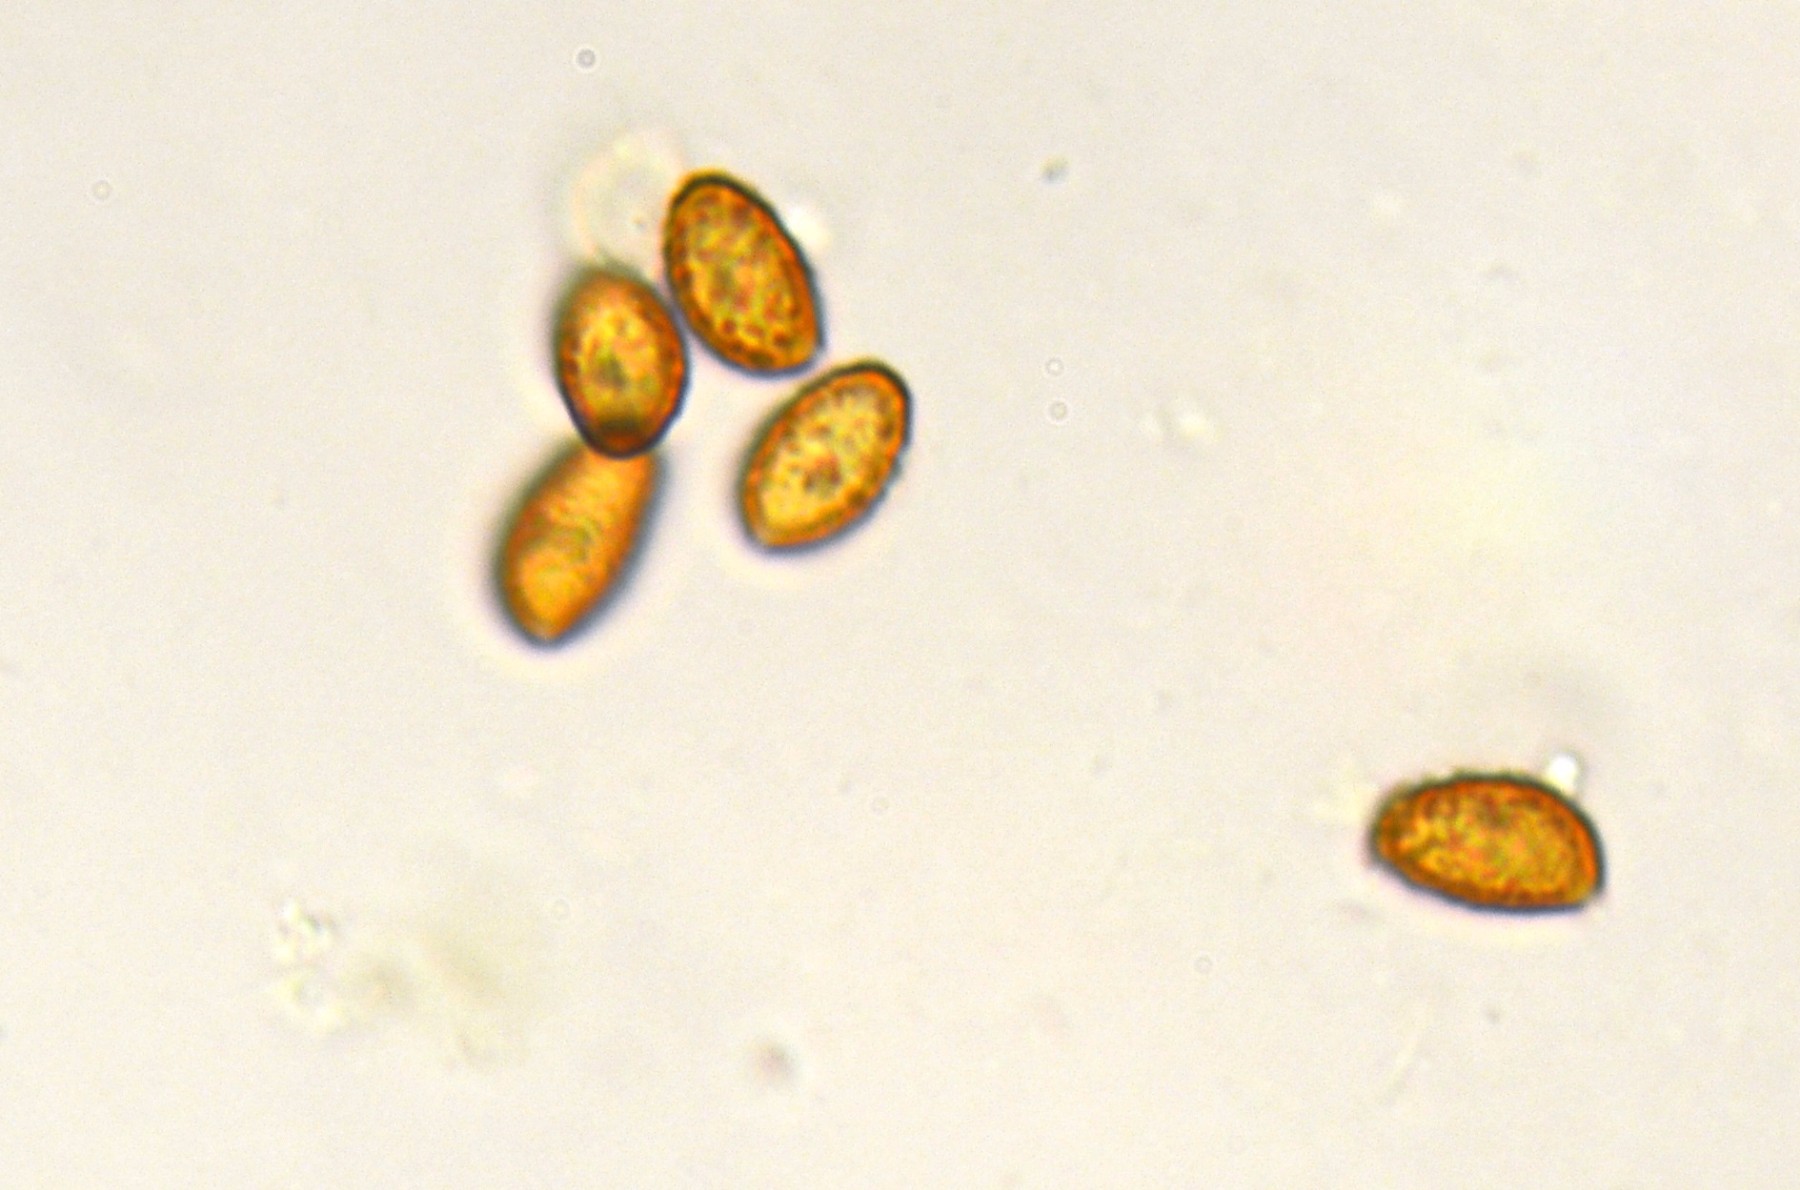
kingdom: Fungi
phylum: Basidiomycota
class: Agaricomycetes
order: Agaricales
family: Cortinariaceae
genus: Cortinarius
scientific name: Cortinarius pratensis
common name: hede-slørhat
